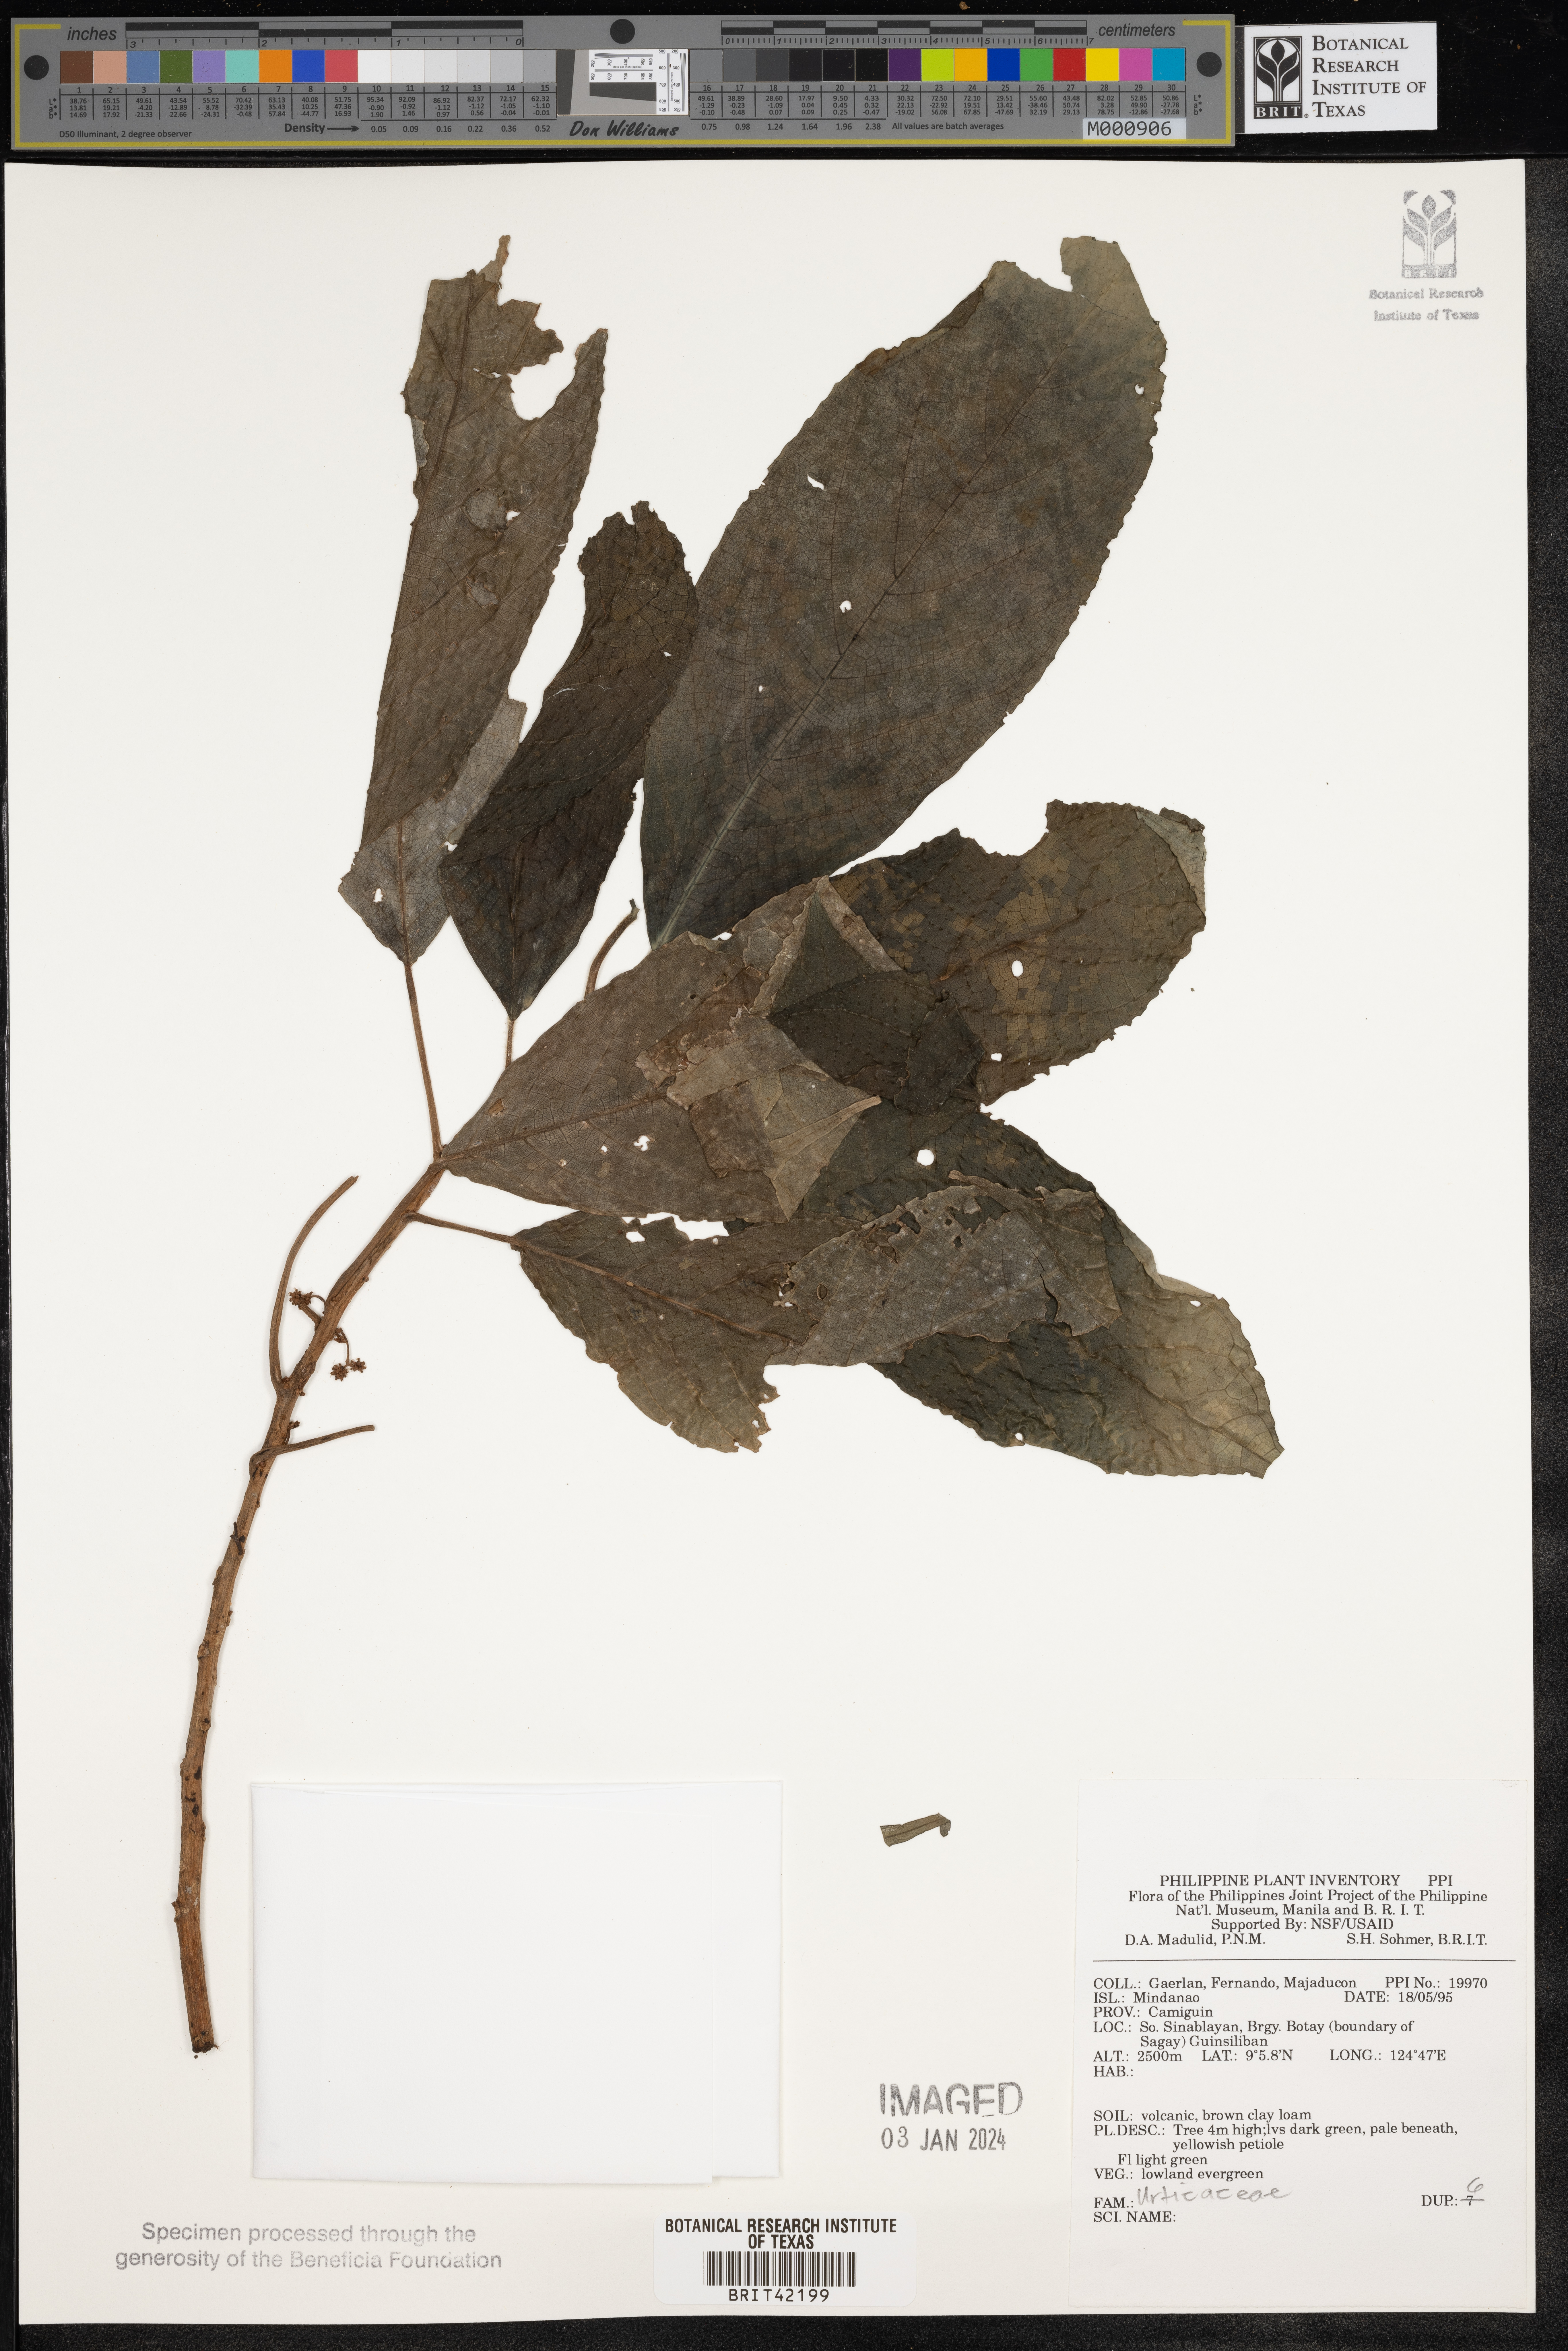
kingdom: Plantae
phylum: Tracheophyta
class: Magnoliopsida
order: Rosales
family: Urticaceae
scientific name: Urticaceae
